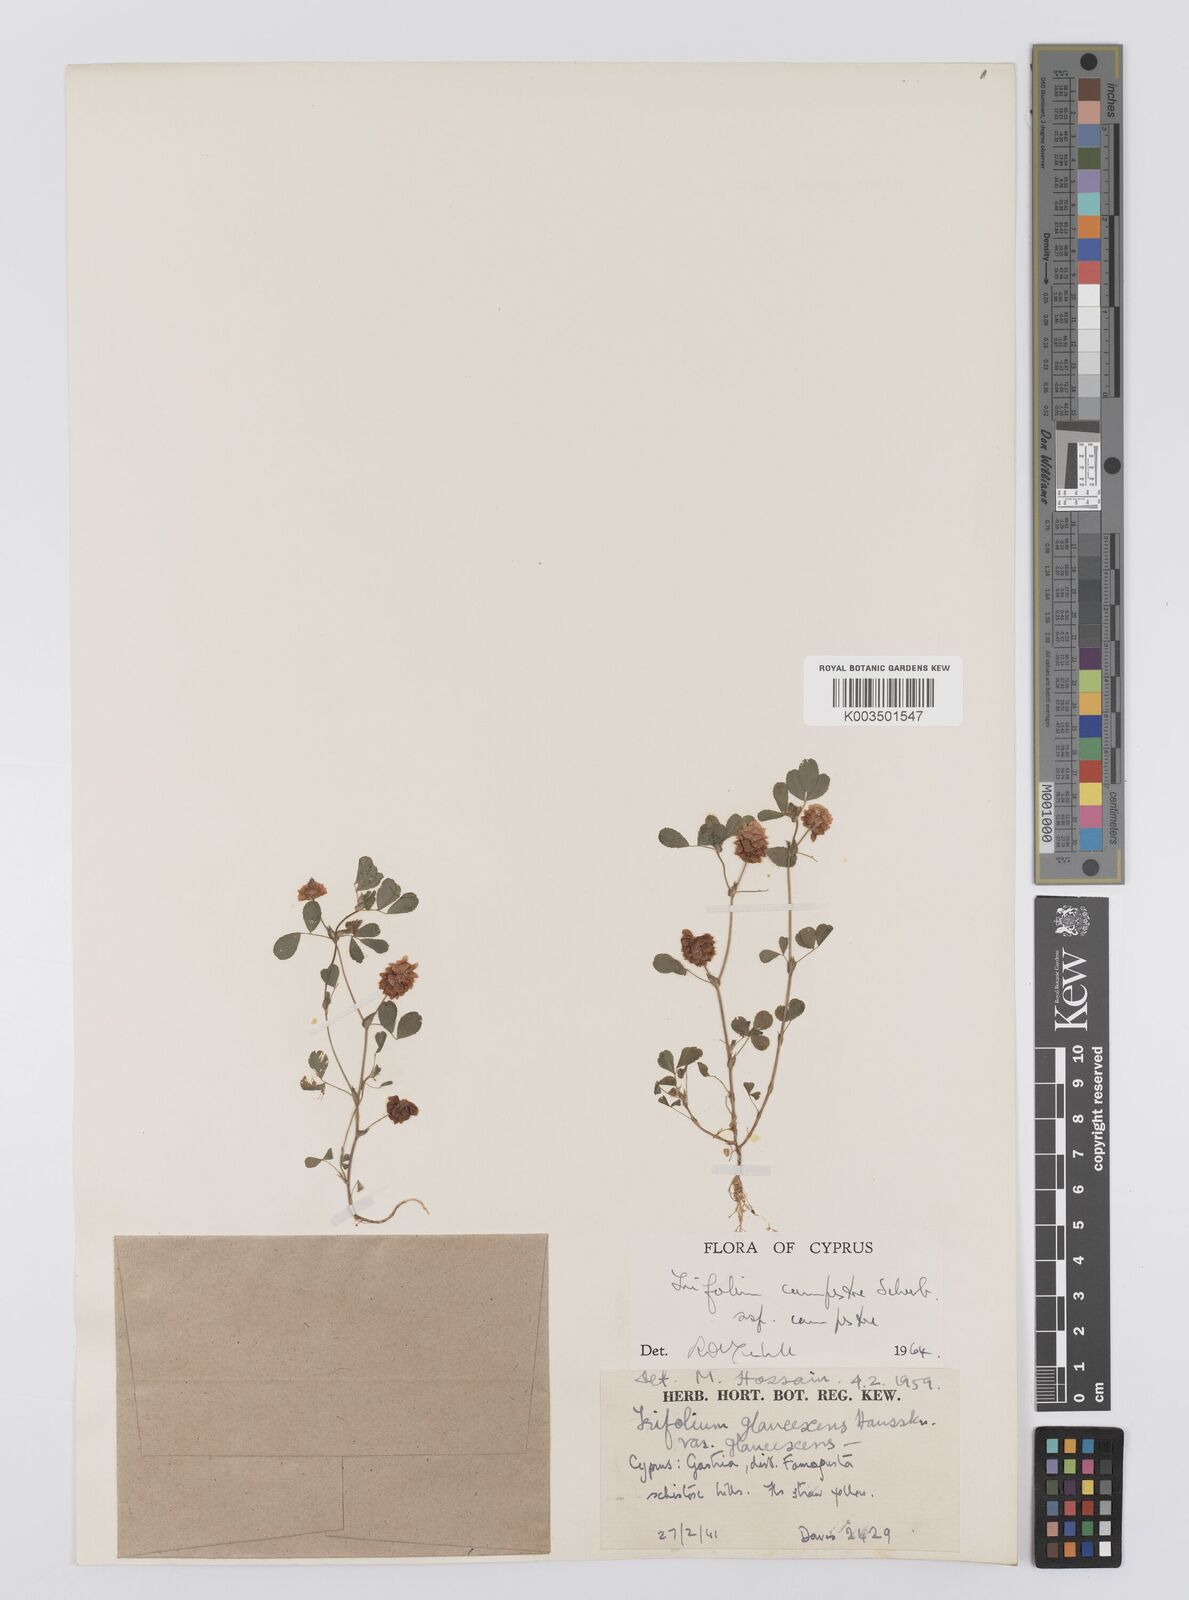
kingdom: Plantae
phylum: Tracheophyta
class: Magnoliopsida
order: Fabales
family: Fabaceae
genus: Trifolium
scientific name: Trifolium campestre
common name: Field clover
